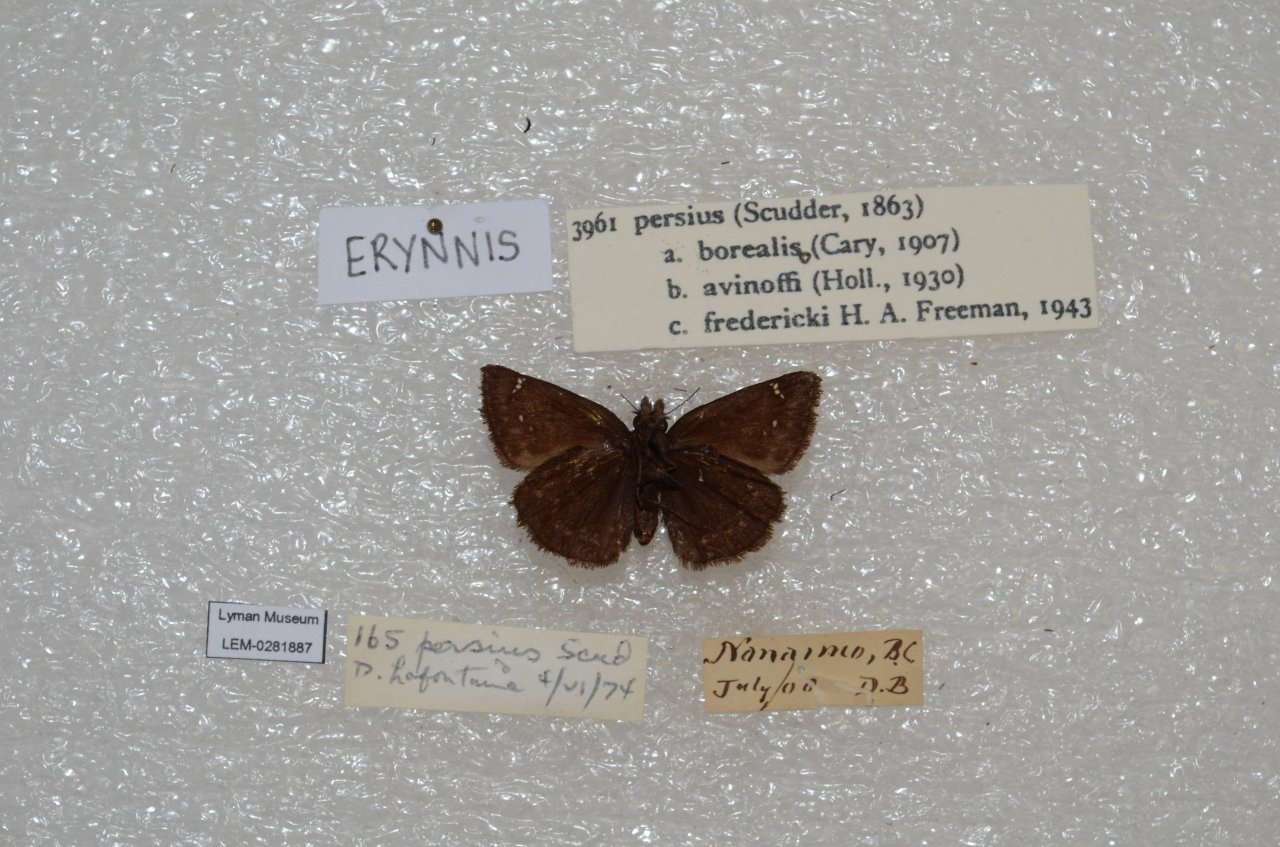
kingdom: Animalia
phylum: Arthropoda
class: Insecta
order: Lepidoptera
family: Hesperiidae
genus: Gesta
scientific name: Gesta
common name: Persius Duskywing
